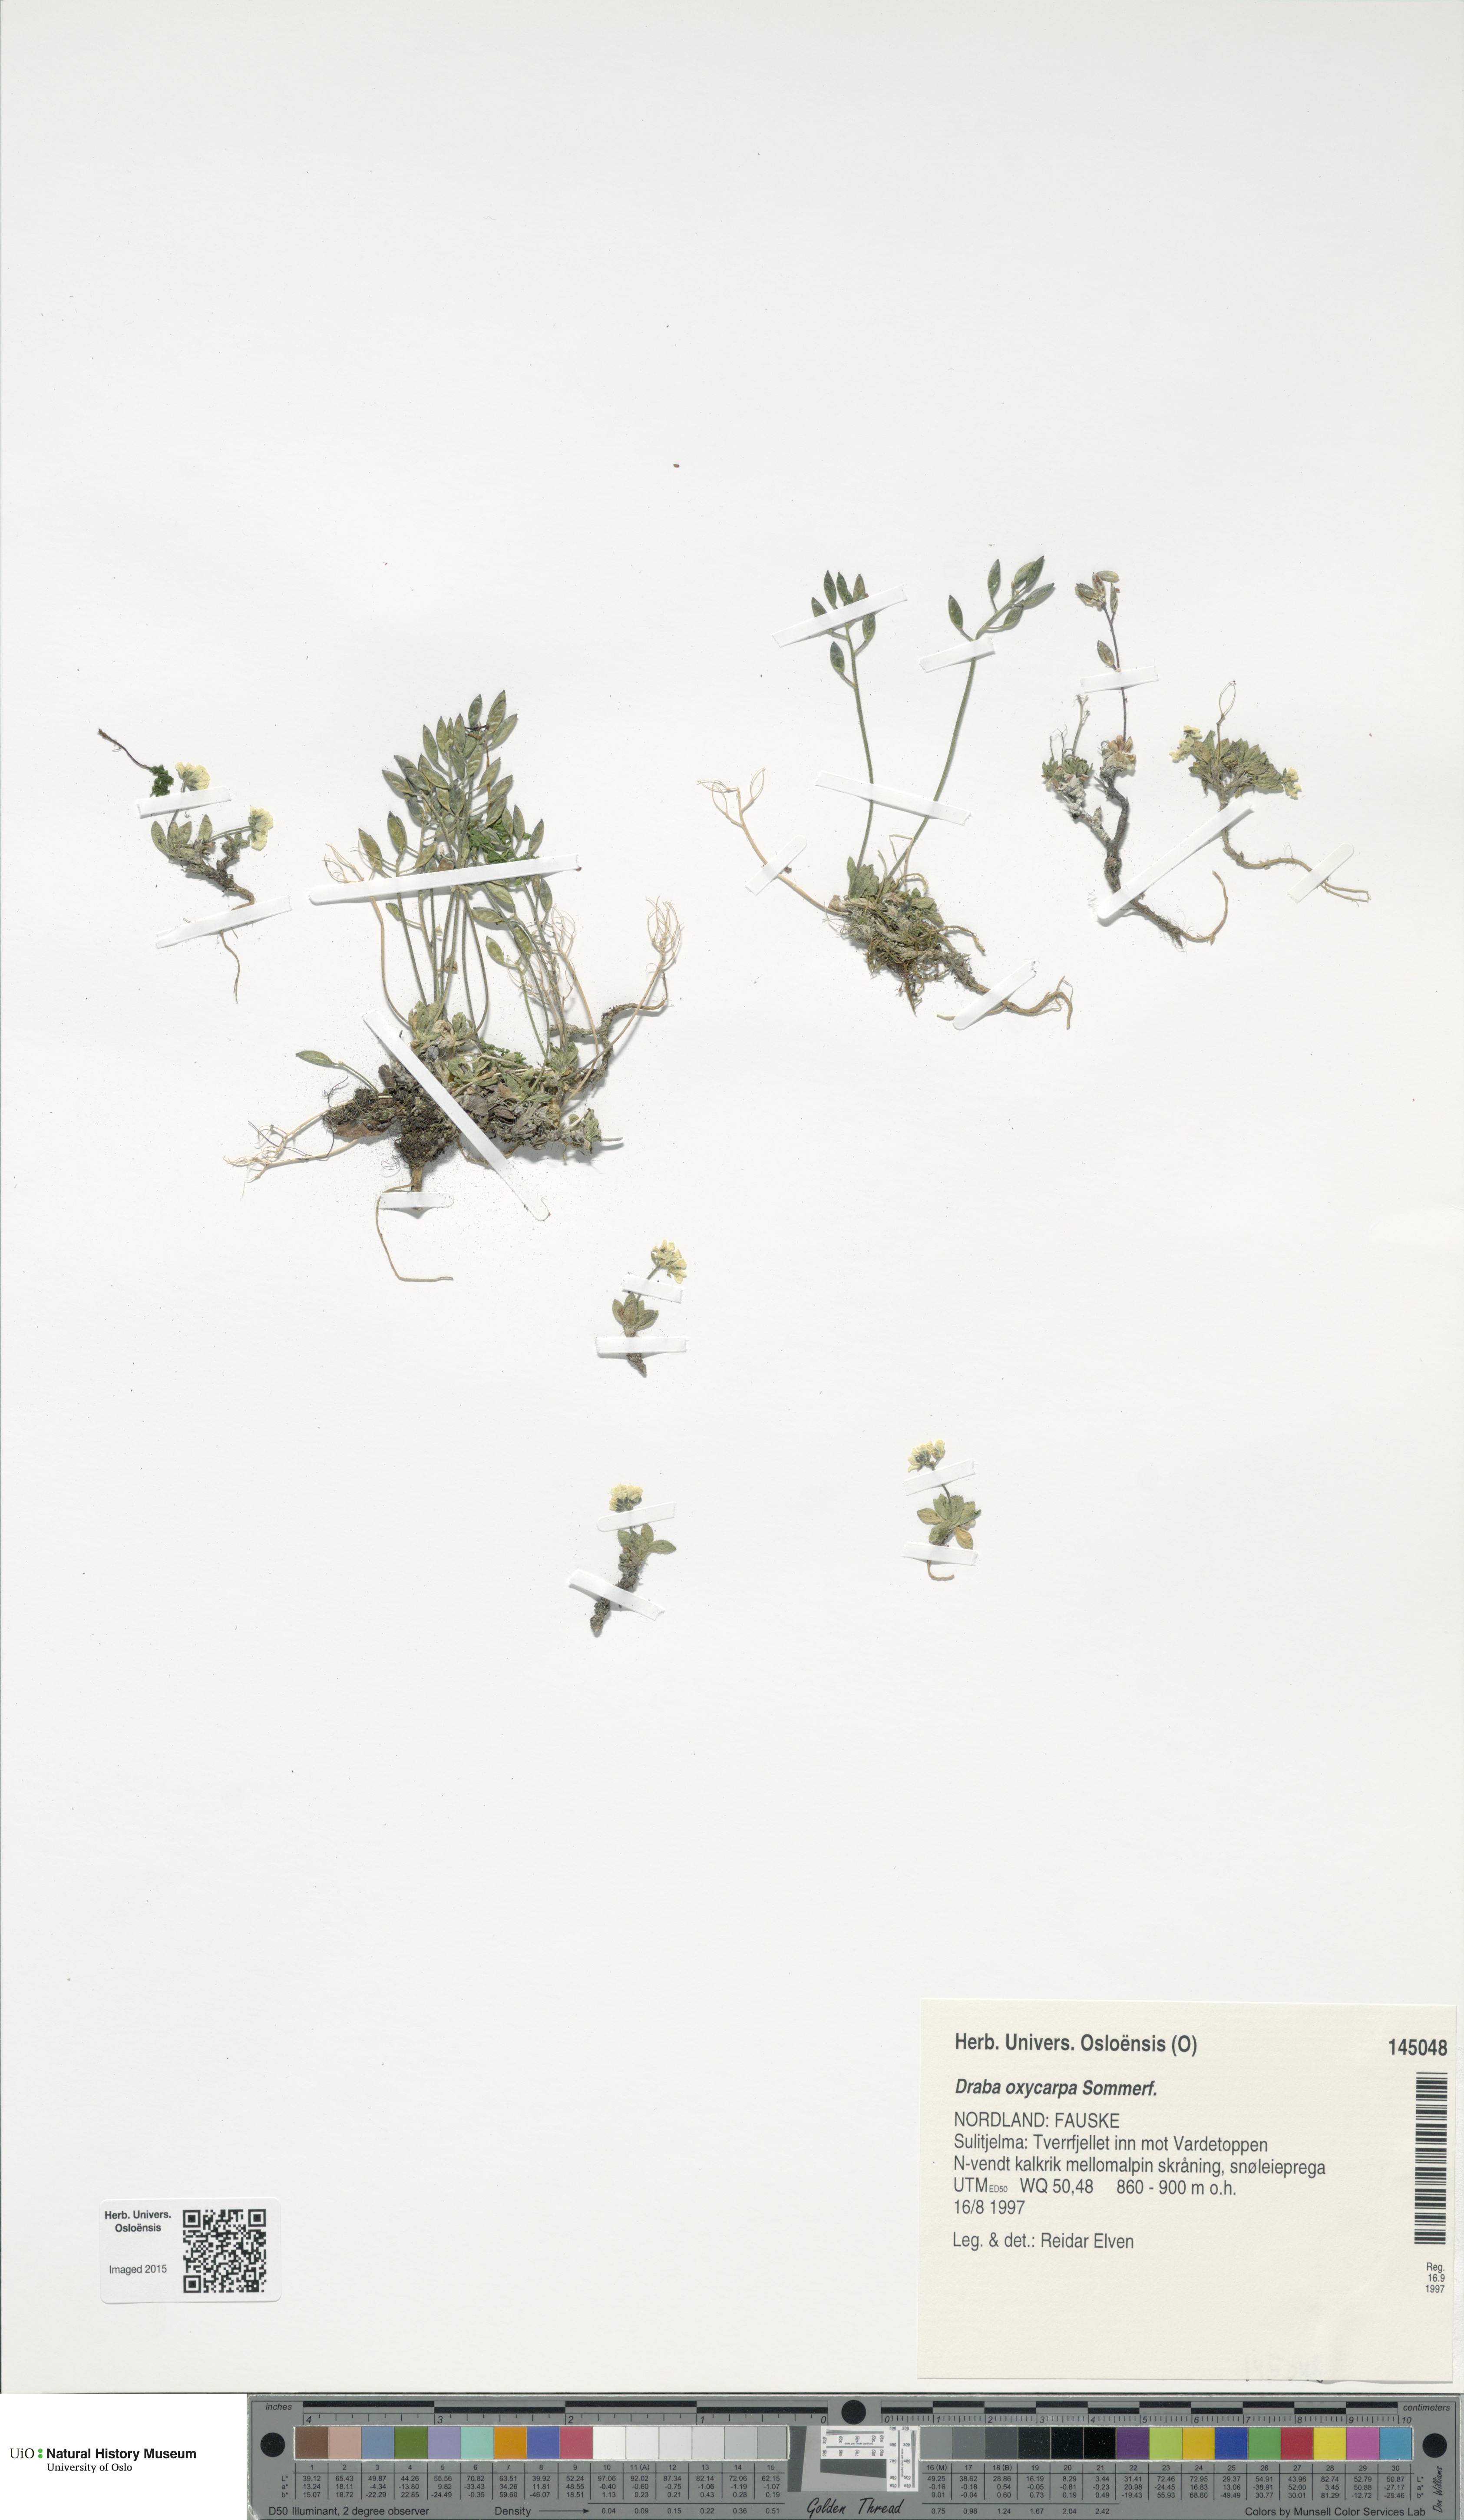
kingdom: Plantae
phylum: Tracheophyta
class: Magnoliopsida
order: Brassicales
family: Brassicaceae
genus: Draba
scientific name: Draba oxycarpa
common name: Sharp-fruited whitlow-grass
